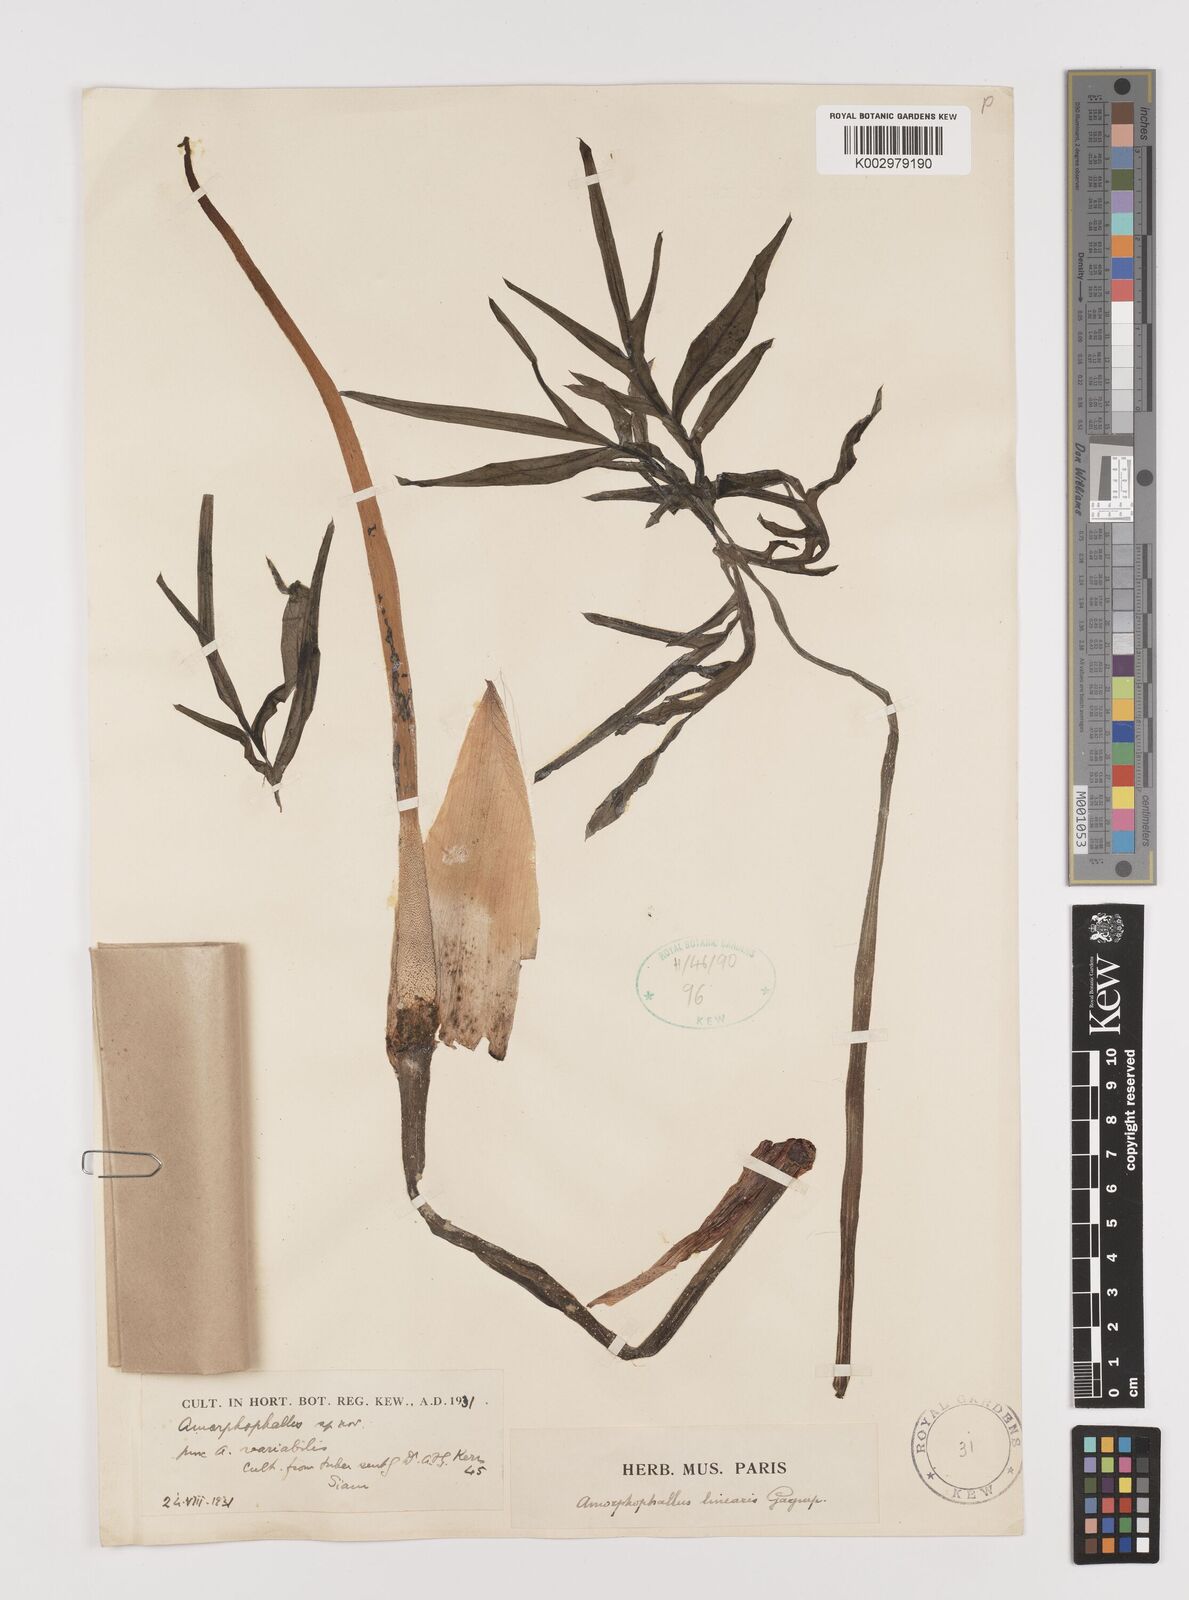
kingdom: Plantae
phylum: Tracheophyta
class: Liliopsida
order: Alismatales
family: Araceae
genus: Amorphophallus
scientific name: Amorphophallus linearis
